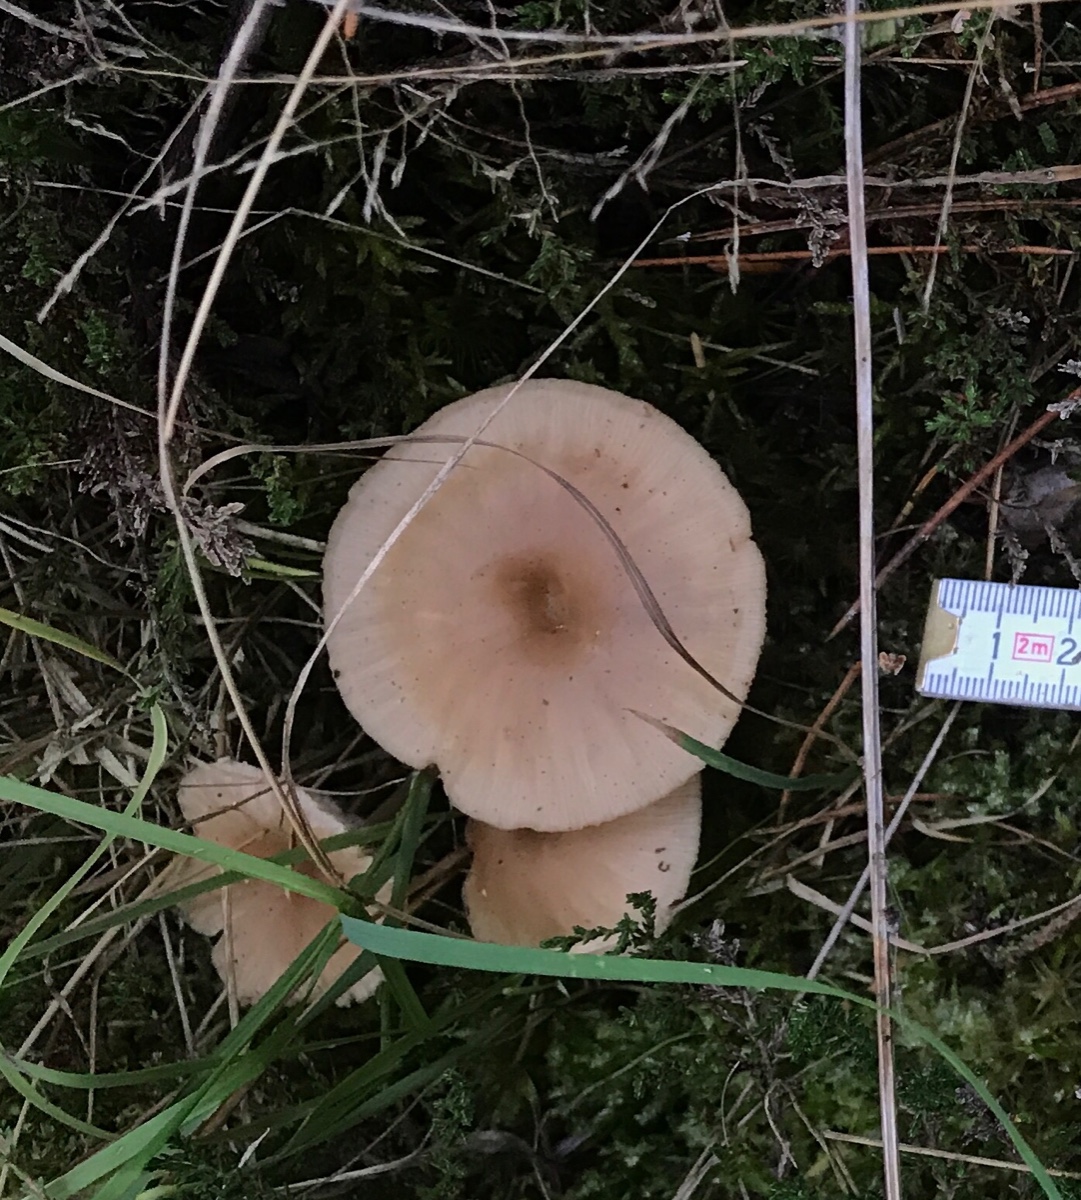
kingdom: Fungi
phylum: Basidiomycota
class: Agaricomycetes
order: Agaricales
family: Tricholomataceae
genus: Clitocybe
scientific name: Clitocybe fragrans
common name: vellugtende tragthat
